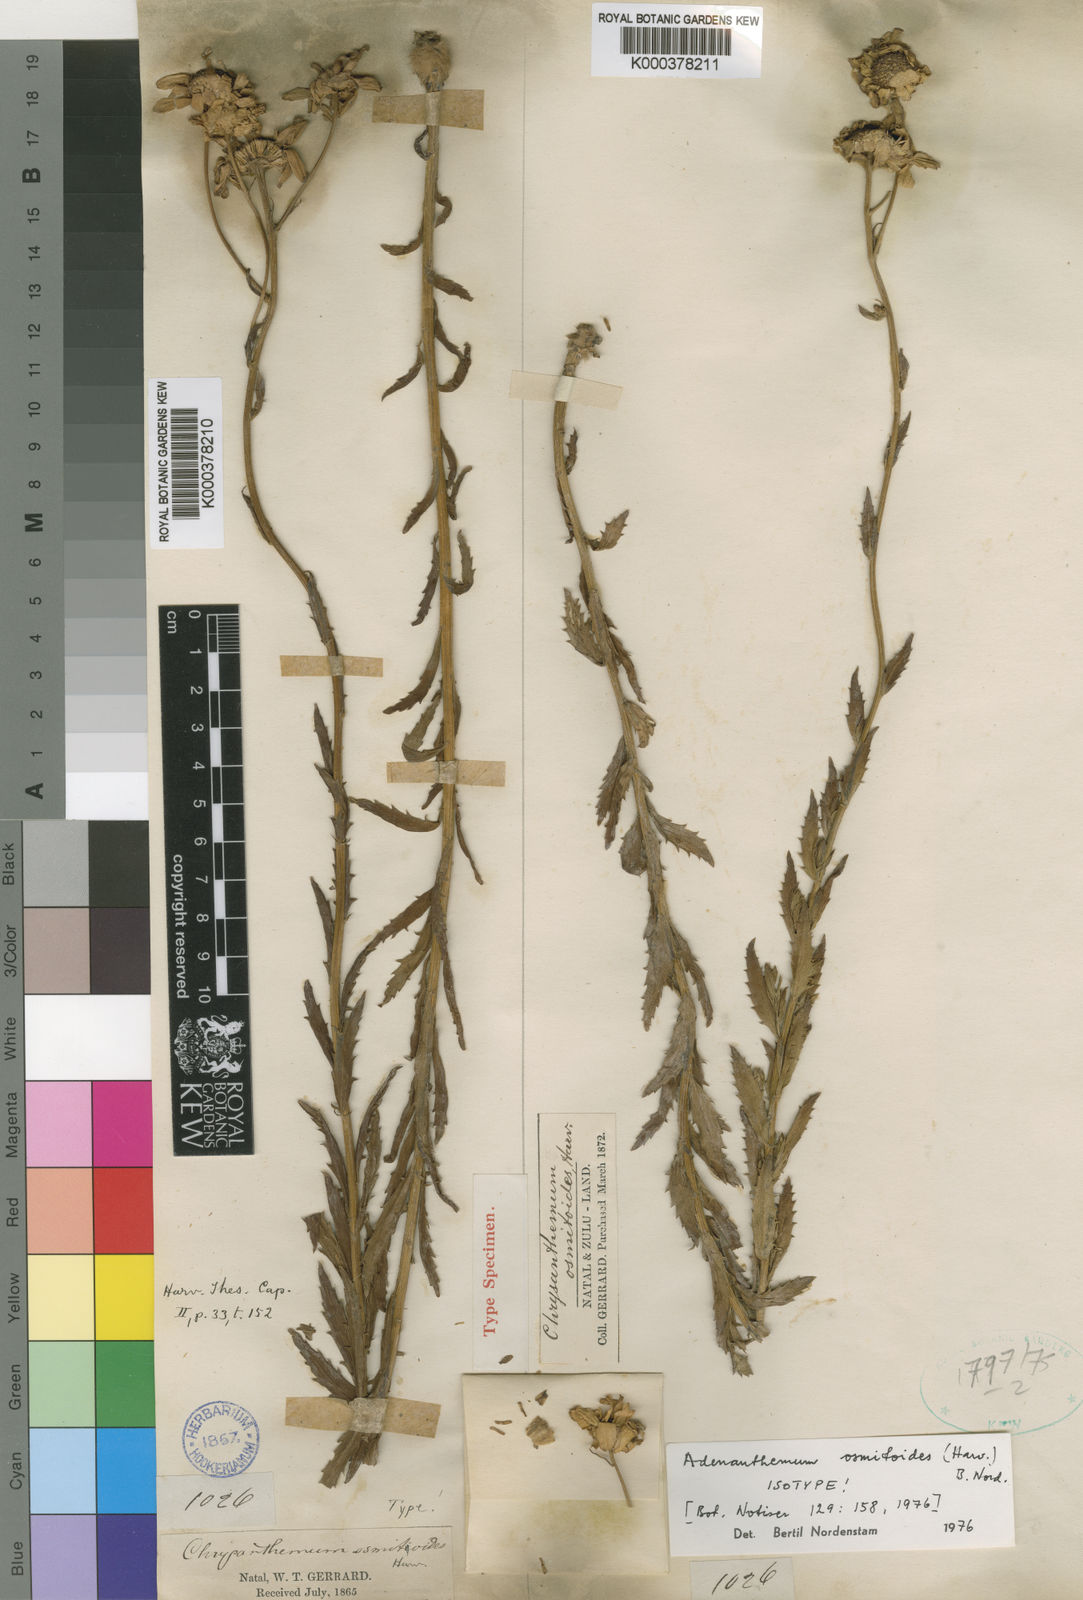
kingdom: Plantae
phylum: Tracheophyta
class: Magnoliopsida
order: Asterales
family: Asteraceae
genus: Adenanthellum
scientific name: Adenanthellum osmitoides
